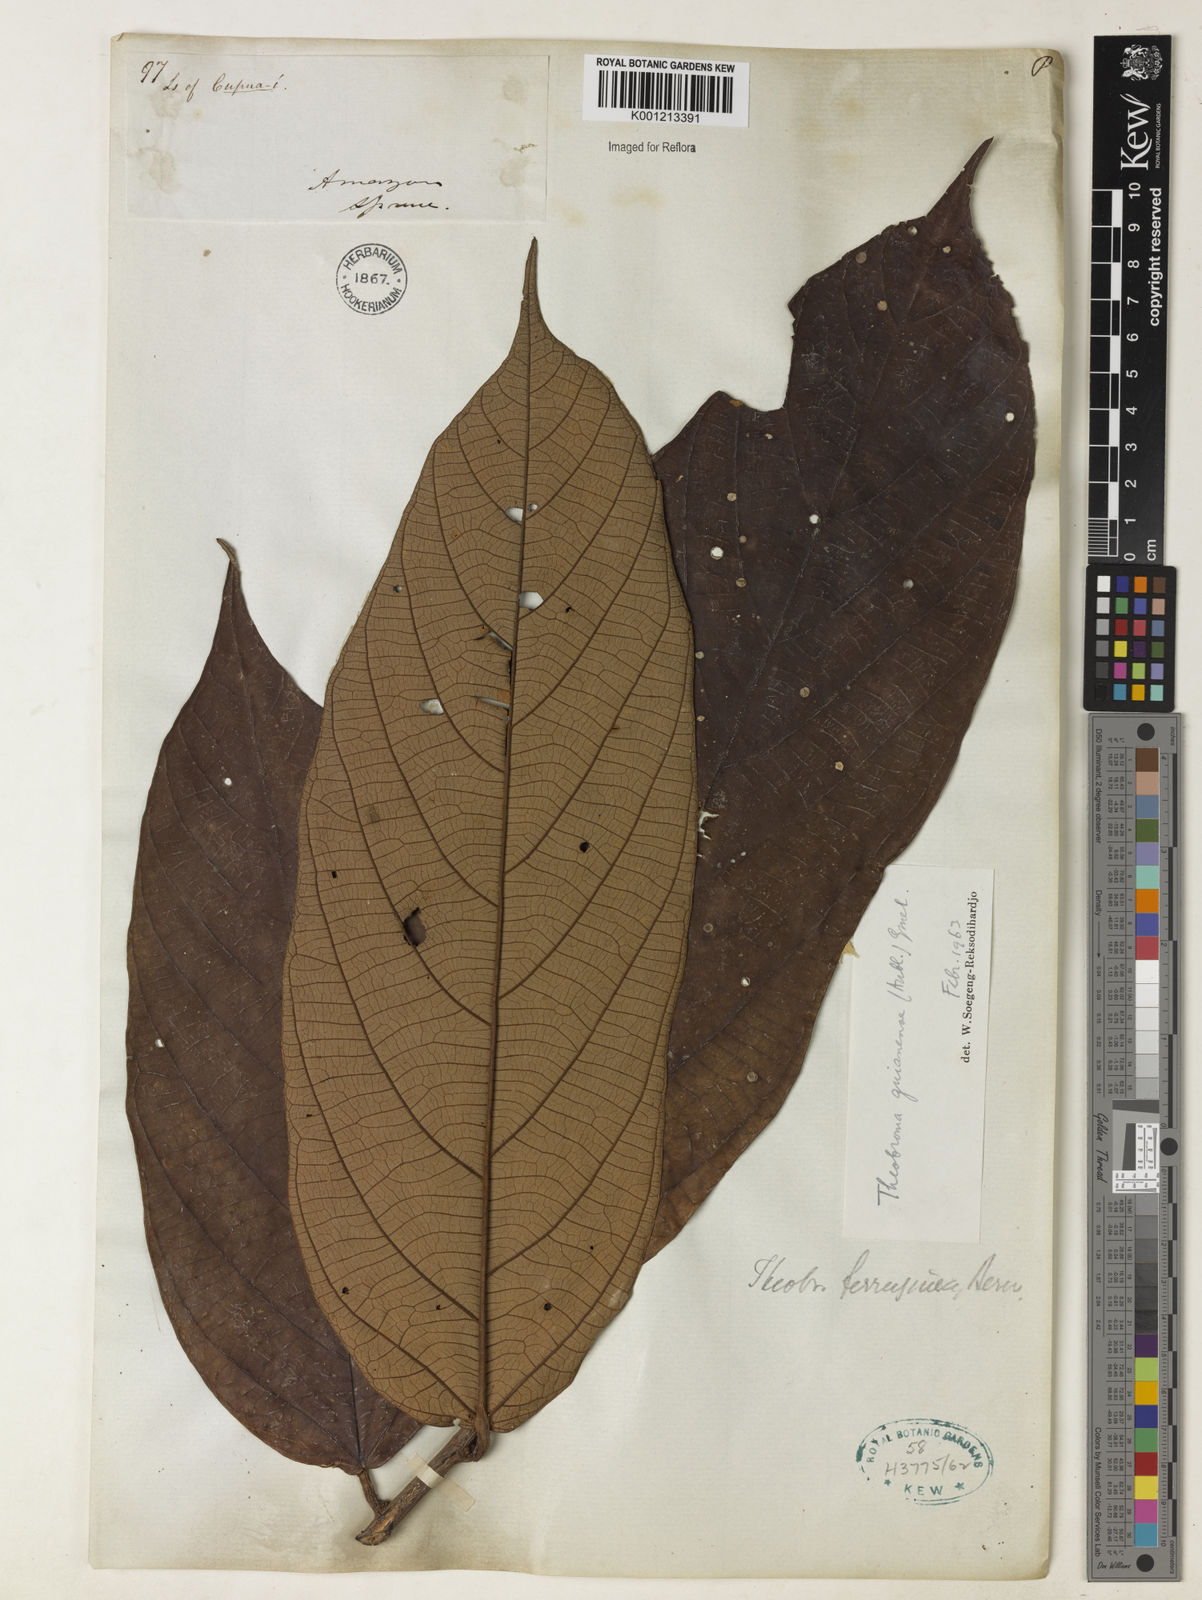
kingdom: Plantae
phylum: Tracheophyta
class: Magnoliopsida
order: Malvales
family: Malvaceae
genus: Theobroma
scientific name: Theobroma subincanum
